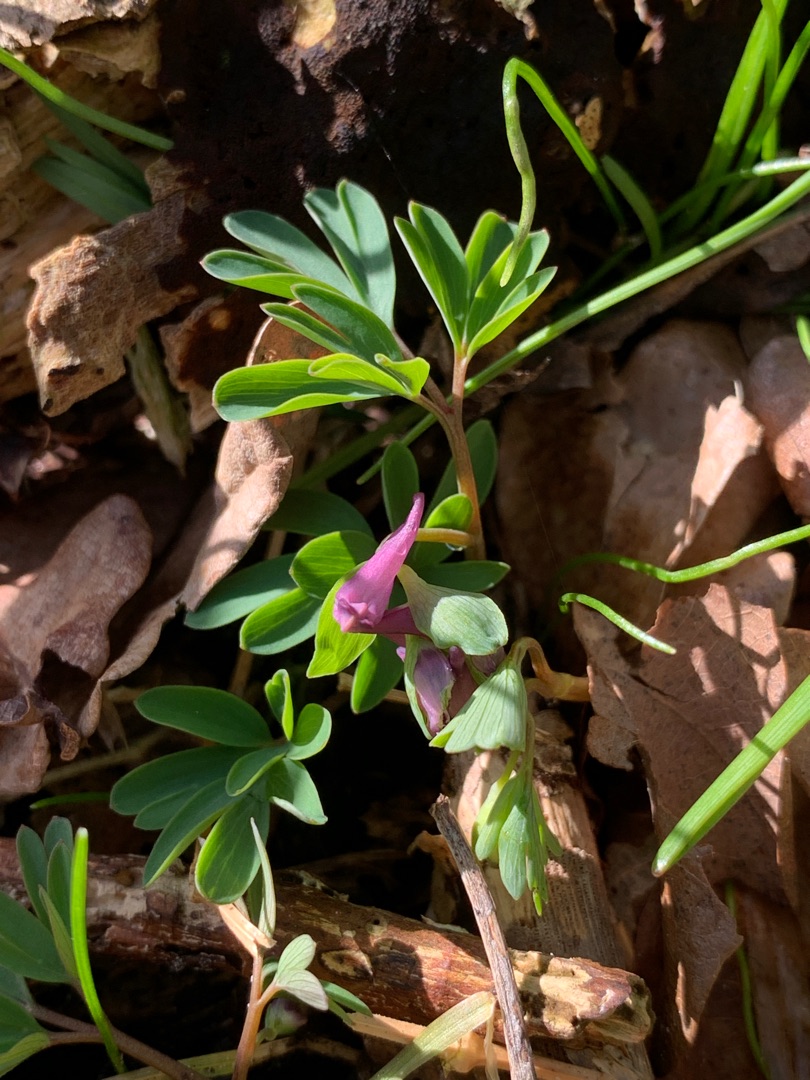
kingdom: Plantae
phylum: Tracheophyta
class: Magnoliopsida
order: Ranunculales
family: Papaveraceae
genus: Corydalis
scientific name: Corydalis intermedia
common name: Liden lærkespore
